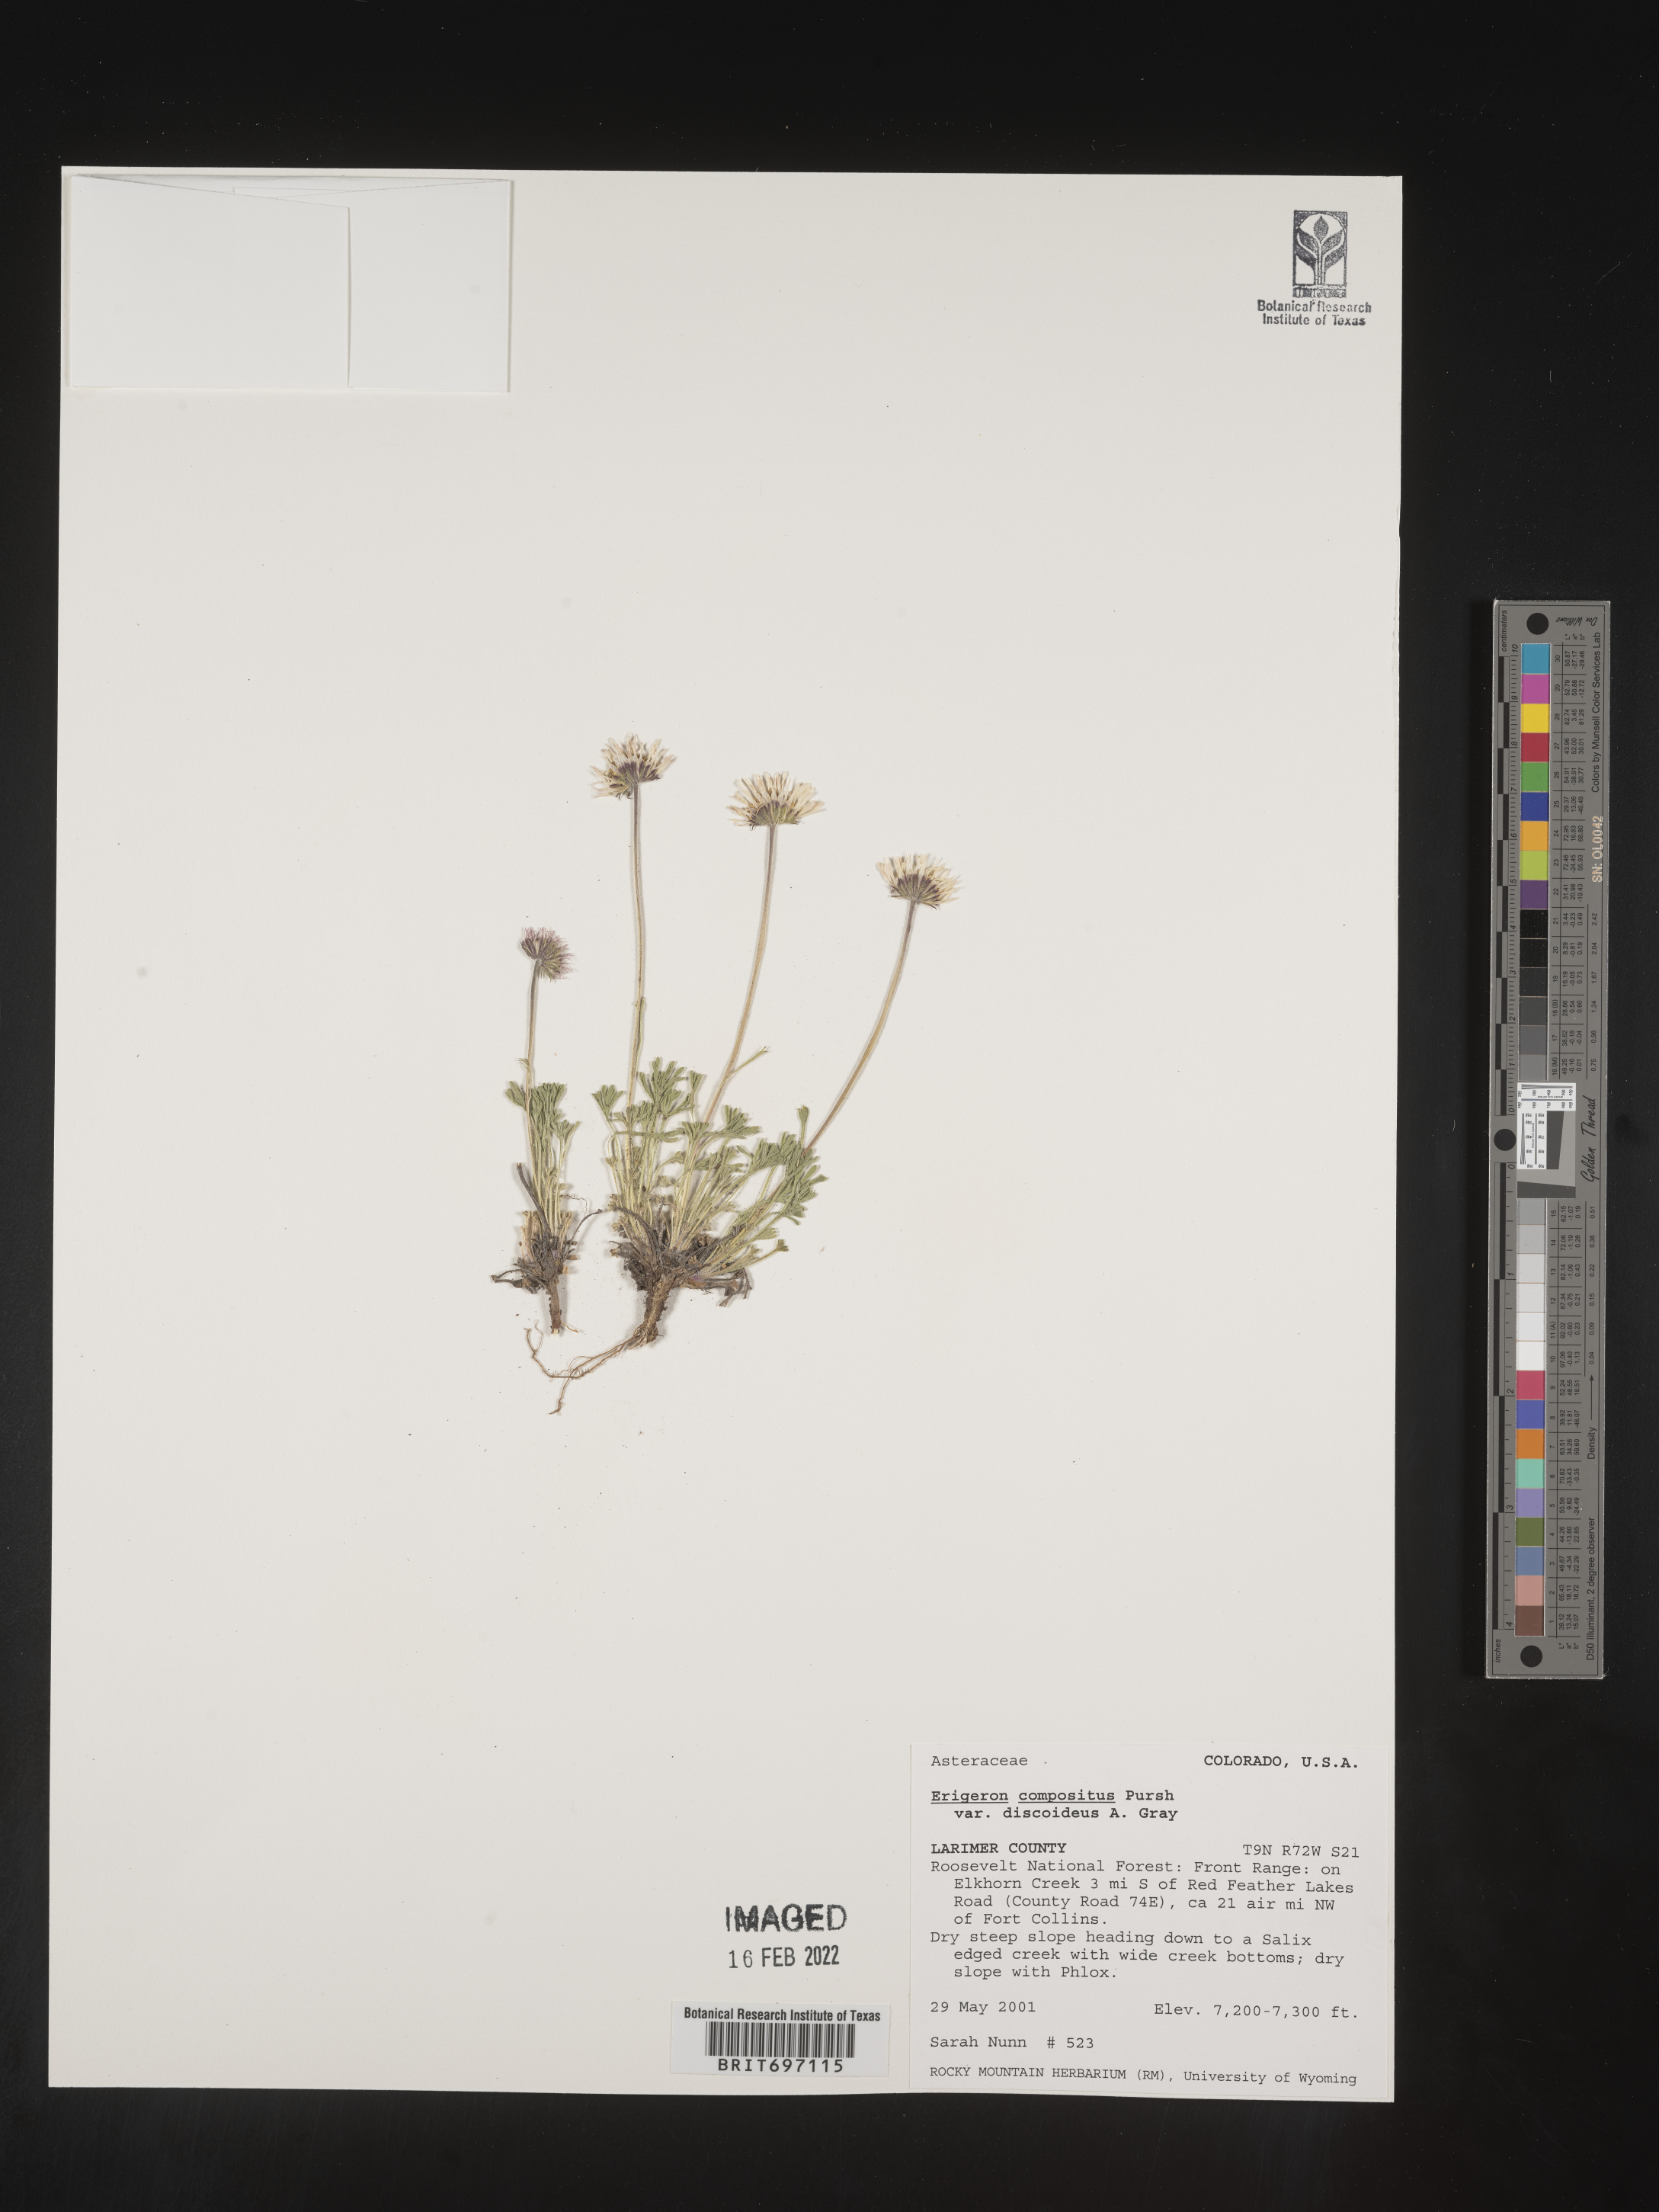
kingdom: Plantae
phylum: Tracheophyta
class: Magnoliopsida
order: Asterales
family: Asteraceae
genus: Erigeron
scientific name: Erigeron compositus
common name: Dwarf mountain fleabane
